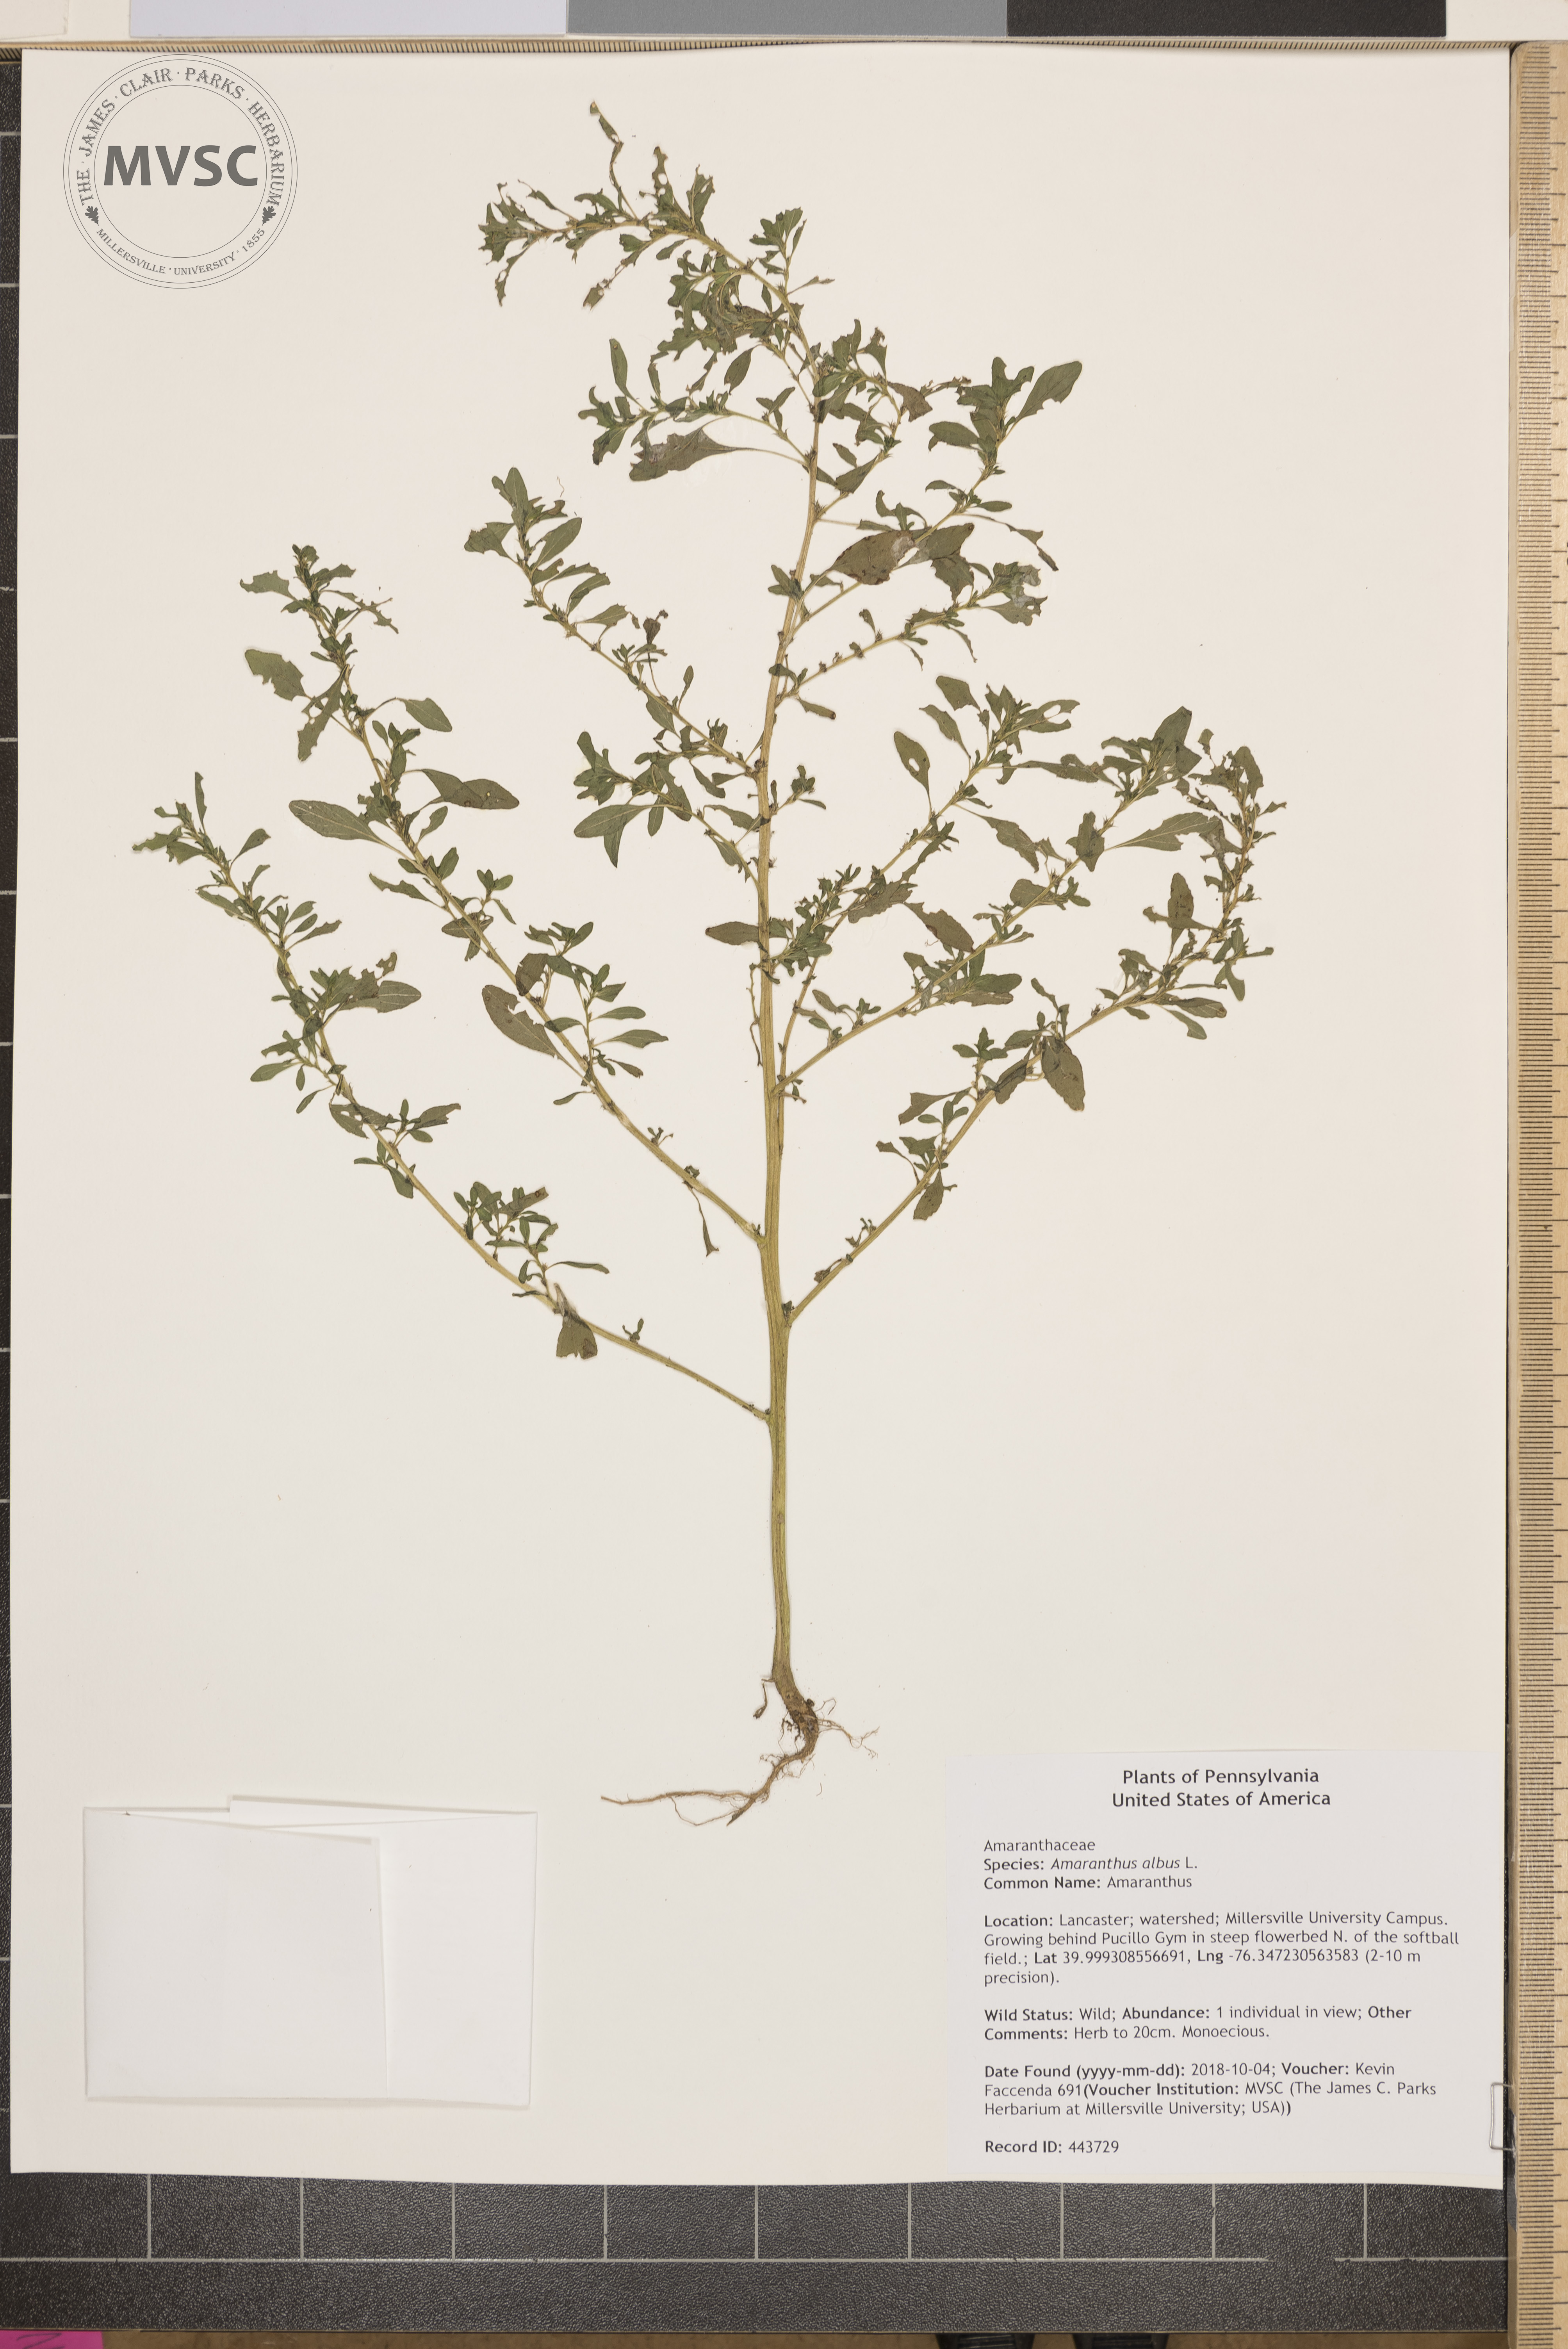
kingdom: Plantae
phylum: Tracheophyta
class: Magnoliopsida
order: Caryophyllales
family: Amaranthaceae
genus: Amaranthus
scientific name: Amaranthus albus
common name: Amaranthus
